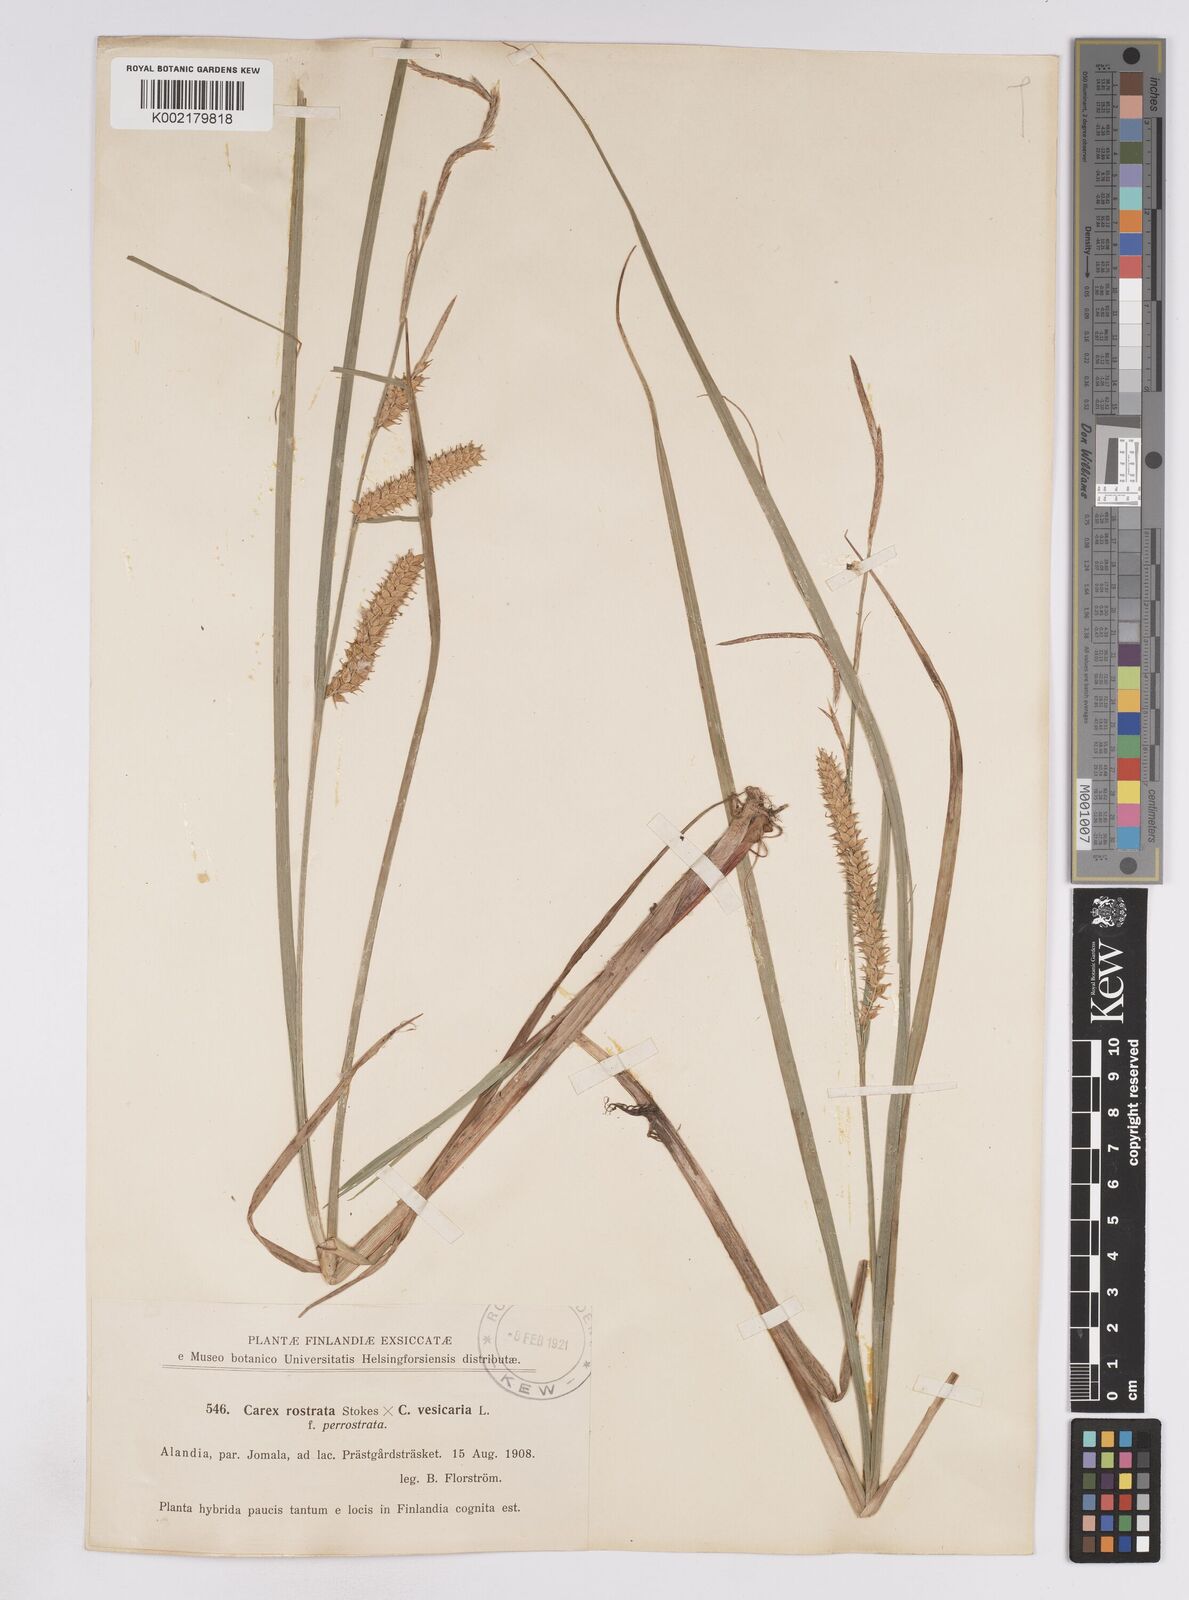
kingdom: Plantae
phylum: Tracheophyta
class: Liliopsida
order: Poales
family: Cyperaceae
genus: Carex
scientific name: Carex rostrata
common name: Bottle sedge
